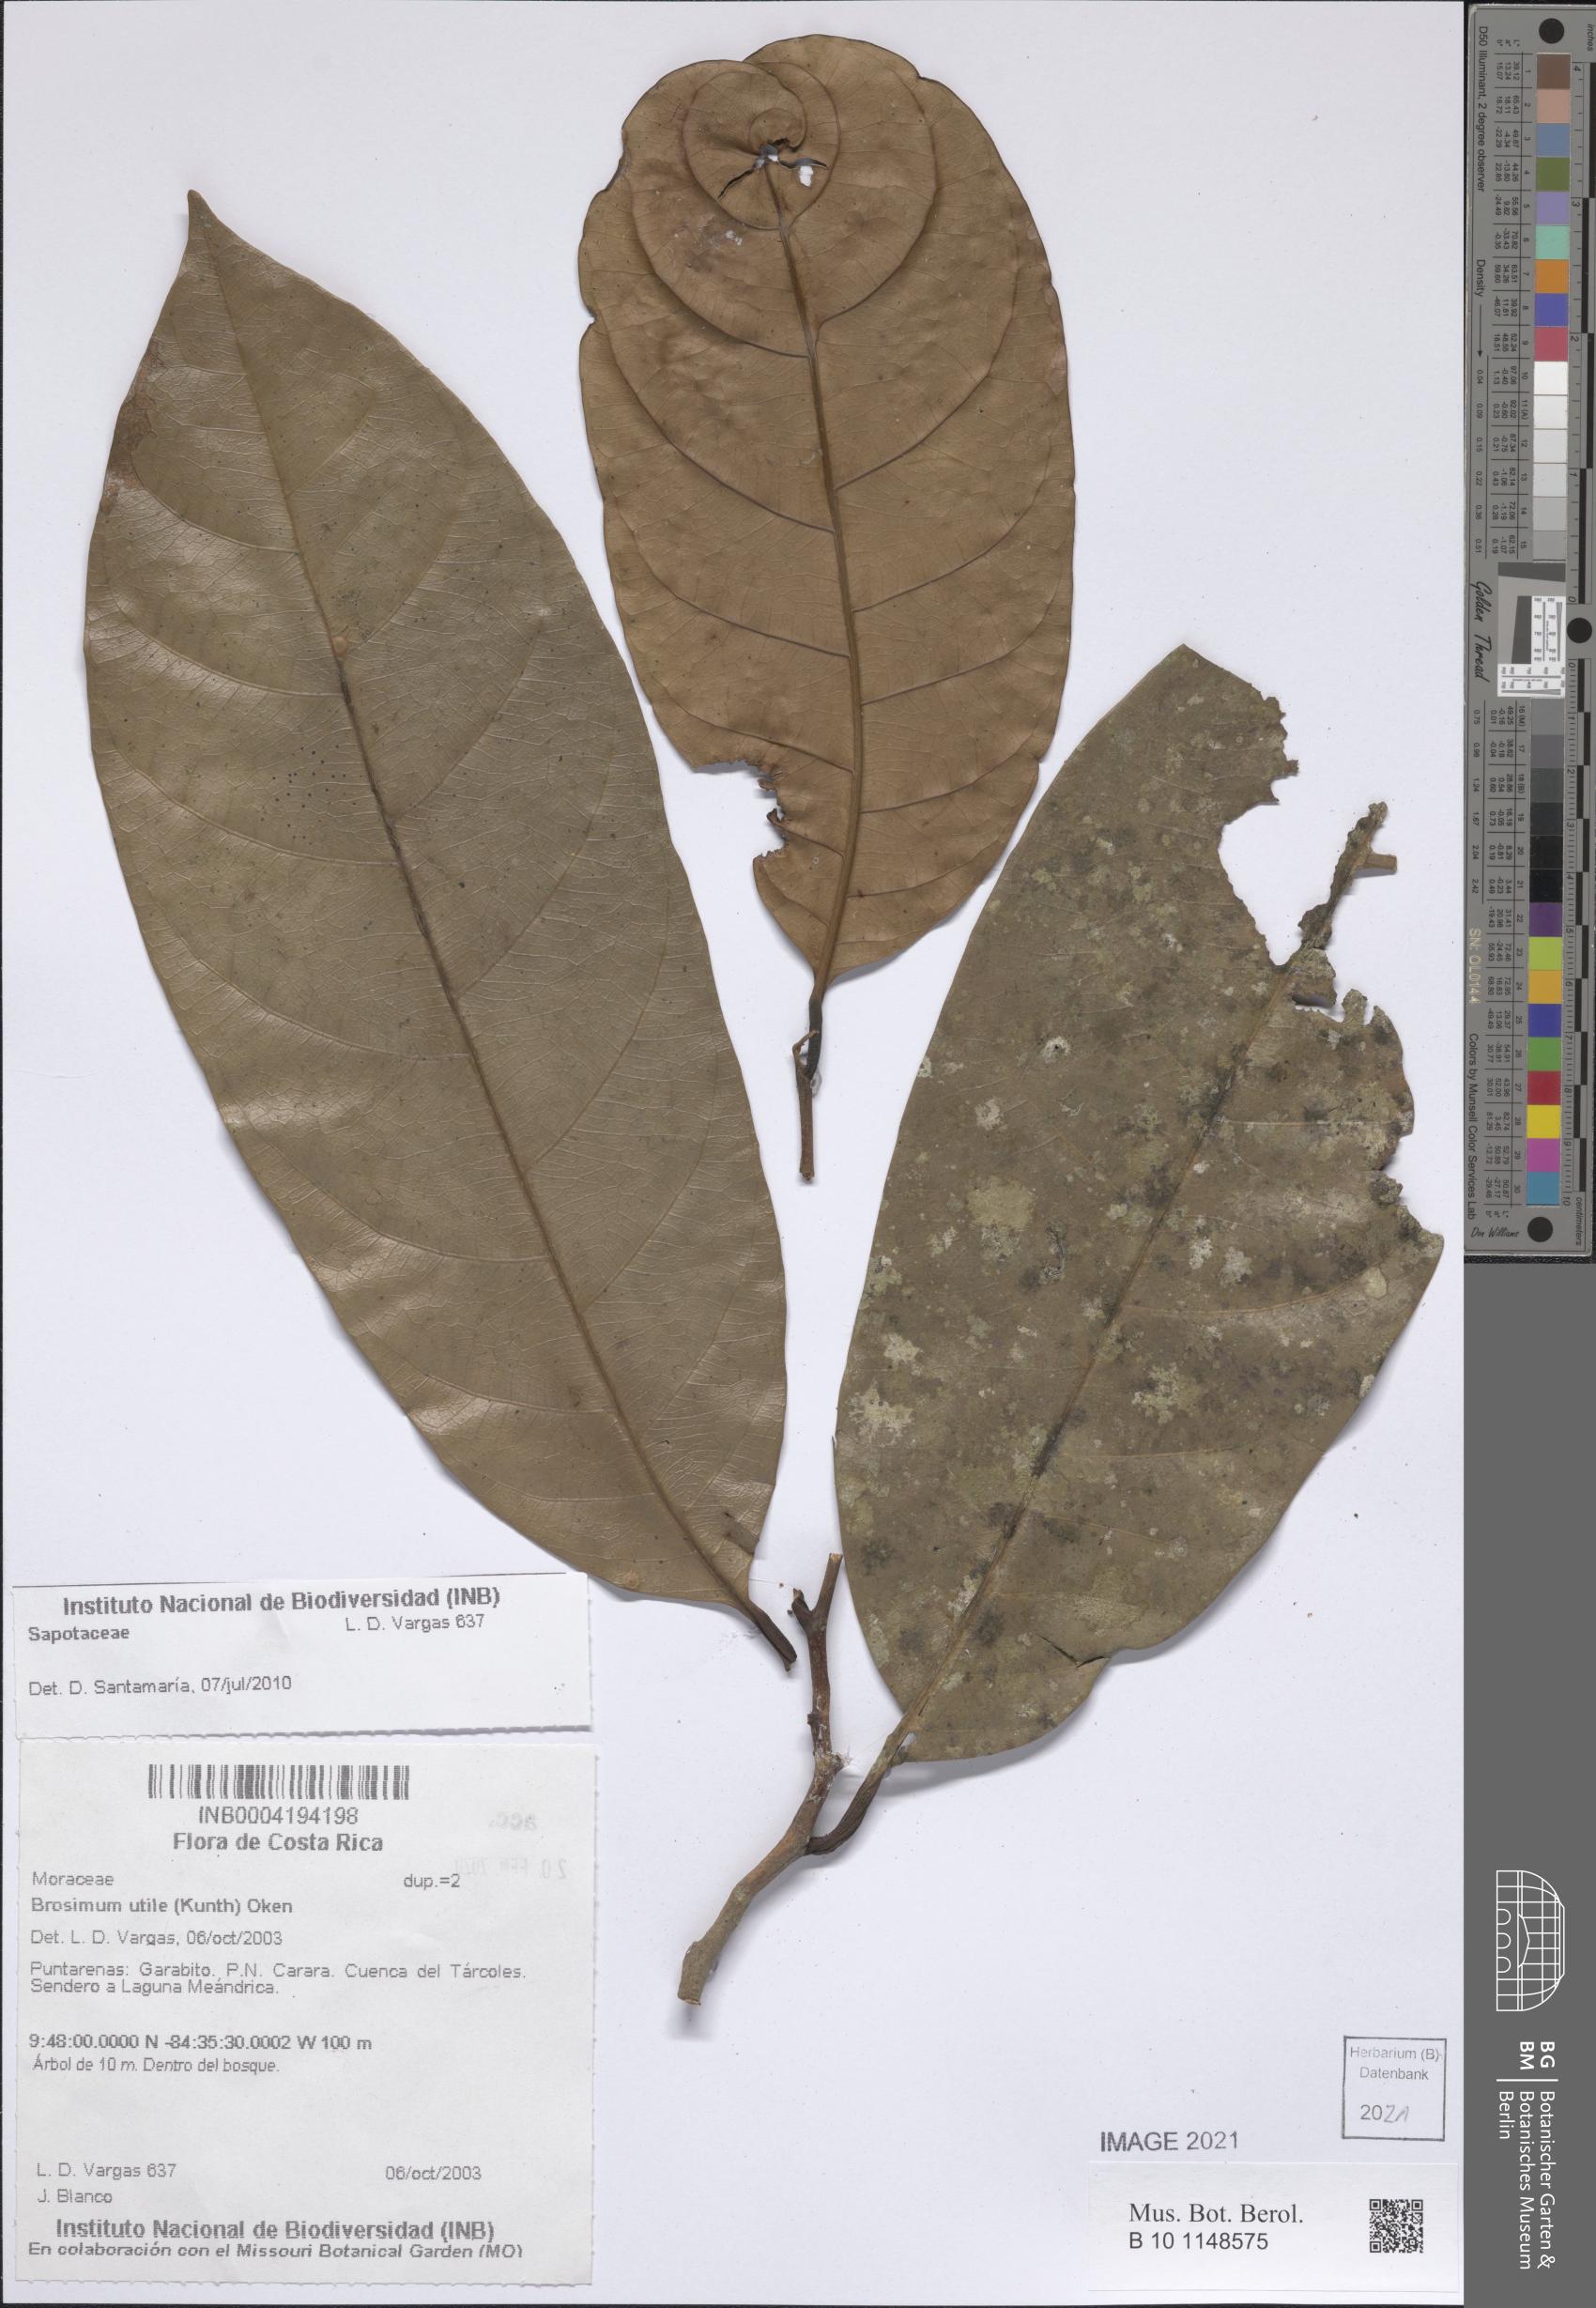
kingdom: Plantae
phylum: Tracheophyta
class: Magnoliopsida
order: Ericales
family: Sapotaceae
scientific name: Sapotaceae
